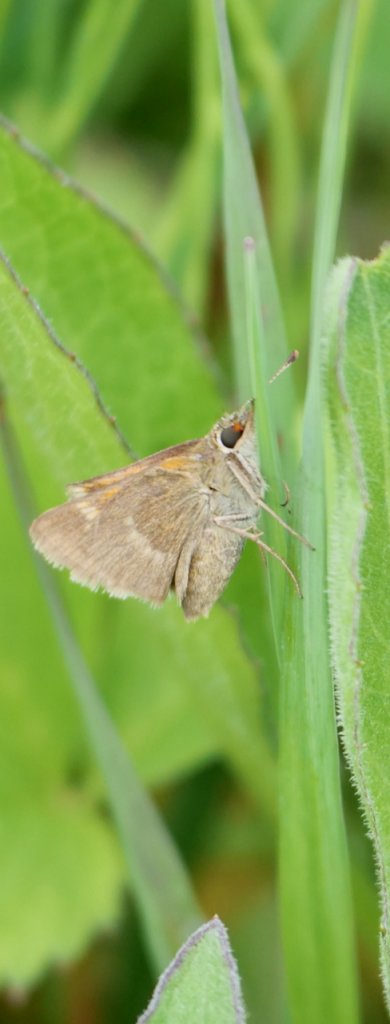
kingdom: Animalia
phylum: Arthropoda
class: Insecta
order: Lepidoptera
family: Hesperiidae
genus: Polites
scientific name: Polites themistocles
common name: Tawny-edged Skipper
